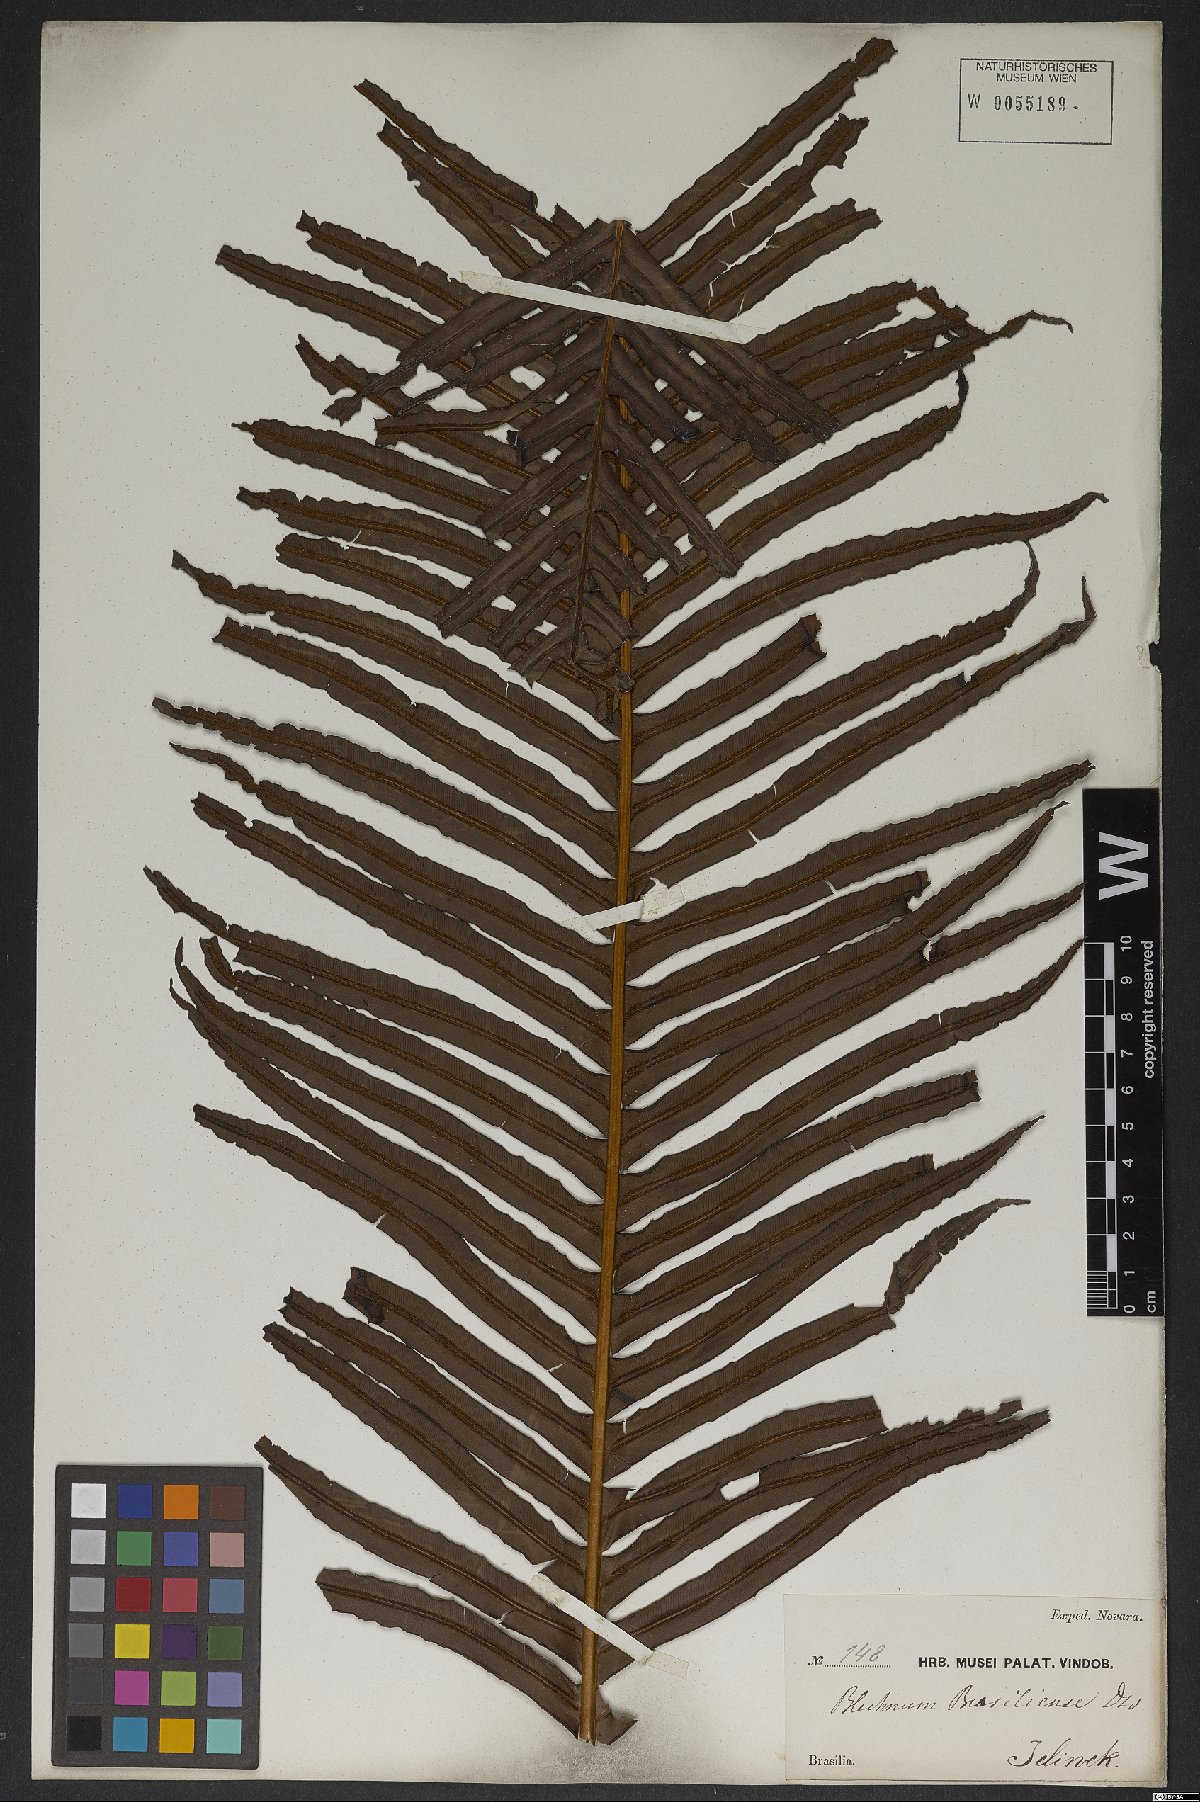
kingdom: Plantae
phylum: Tracheophyta
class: Polypodiopsida
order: Polypodiales
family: Blechnaceae
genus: Neoblechnum
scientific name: Neoblechnum brasiliense
